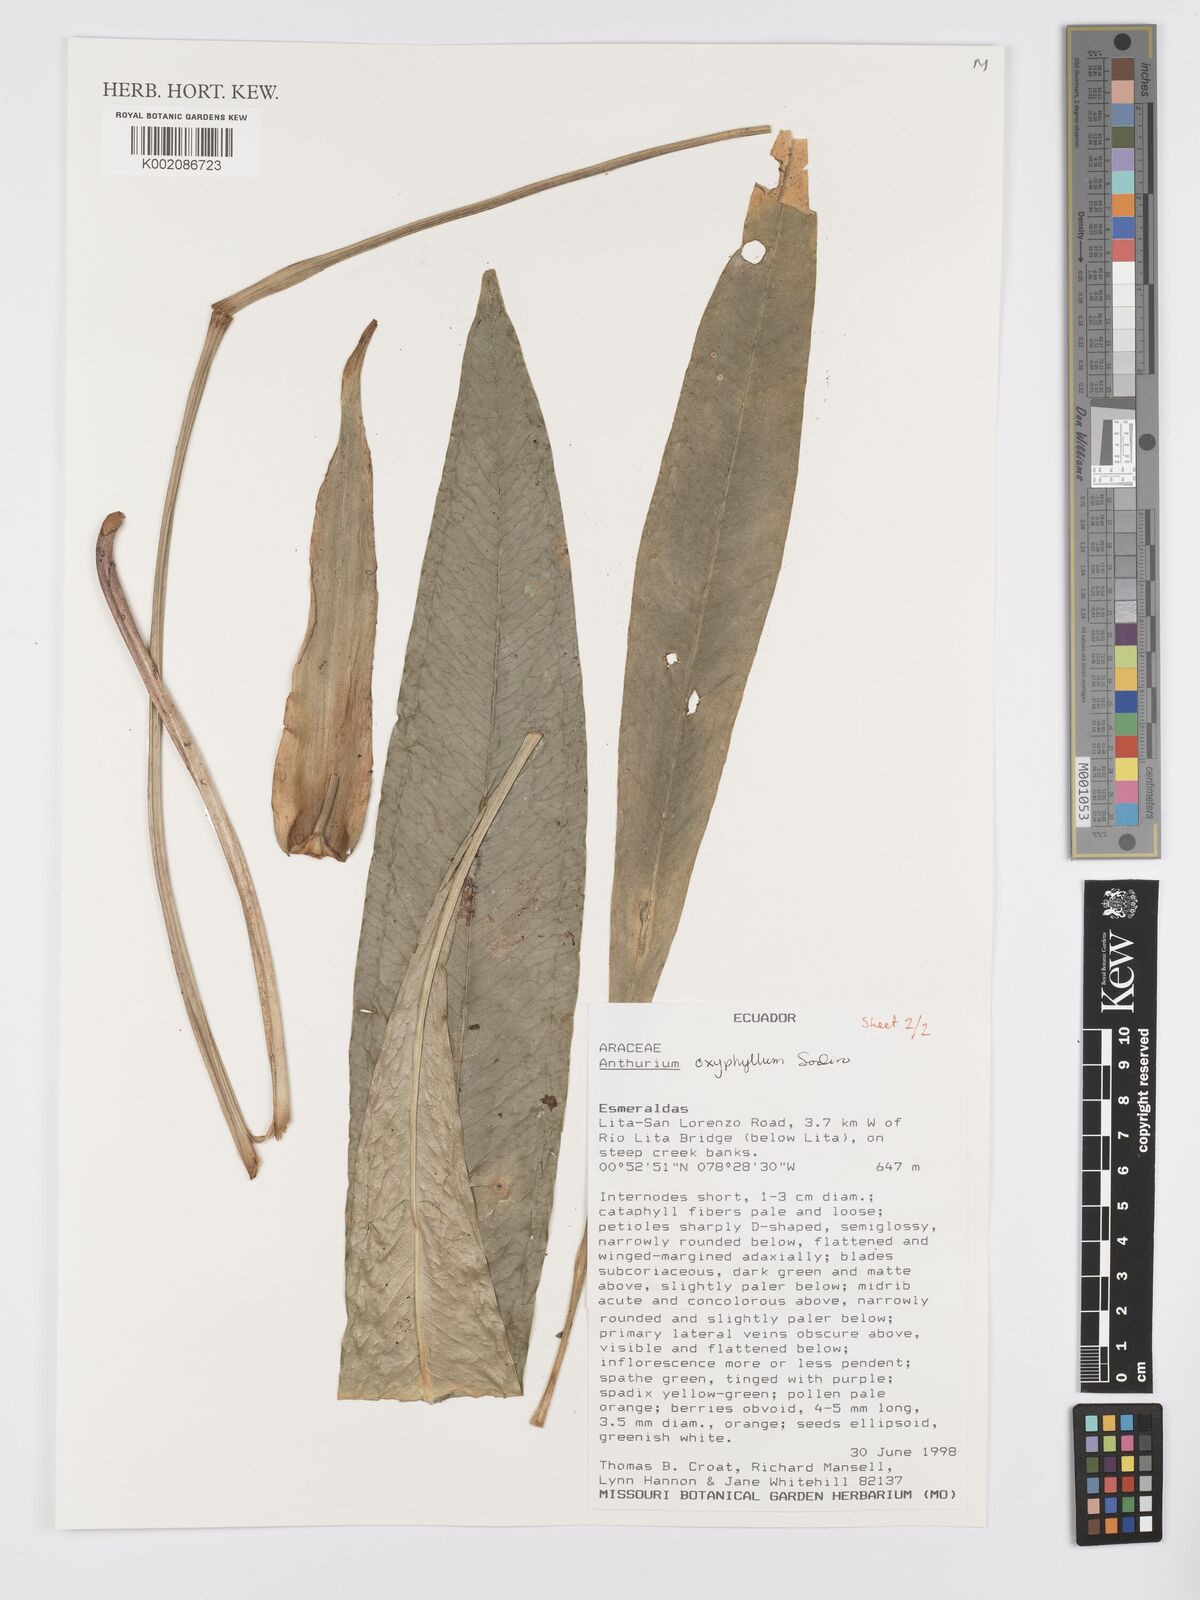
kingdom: Plantae
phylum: Tracheophyta
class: Liliopsida
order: Alismatales
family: Araceae
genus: Anthurium
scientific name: Anthurium oxyphyllum
